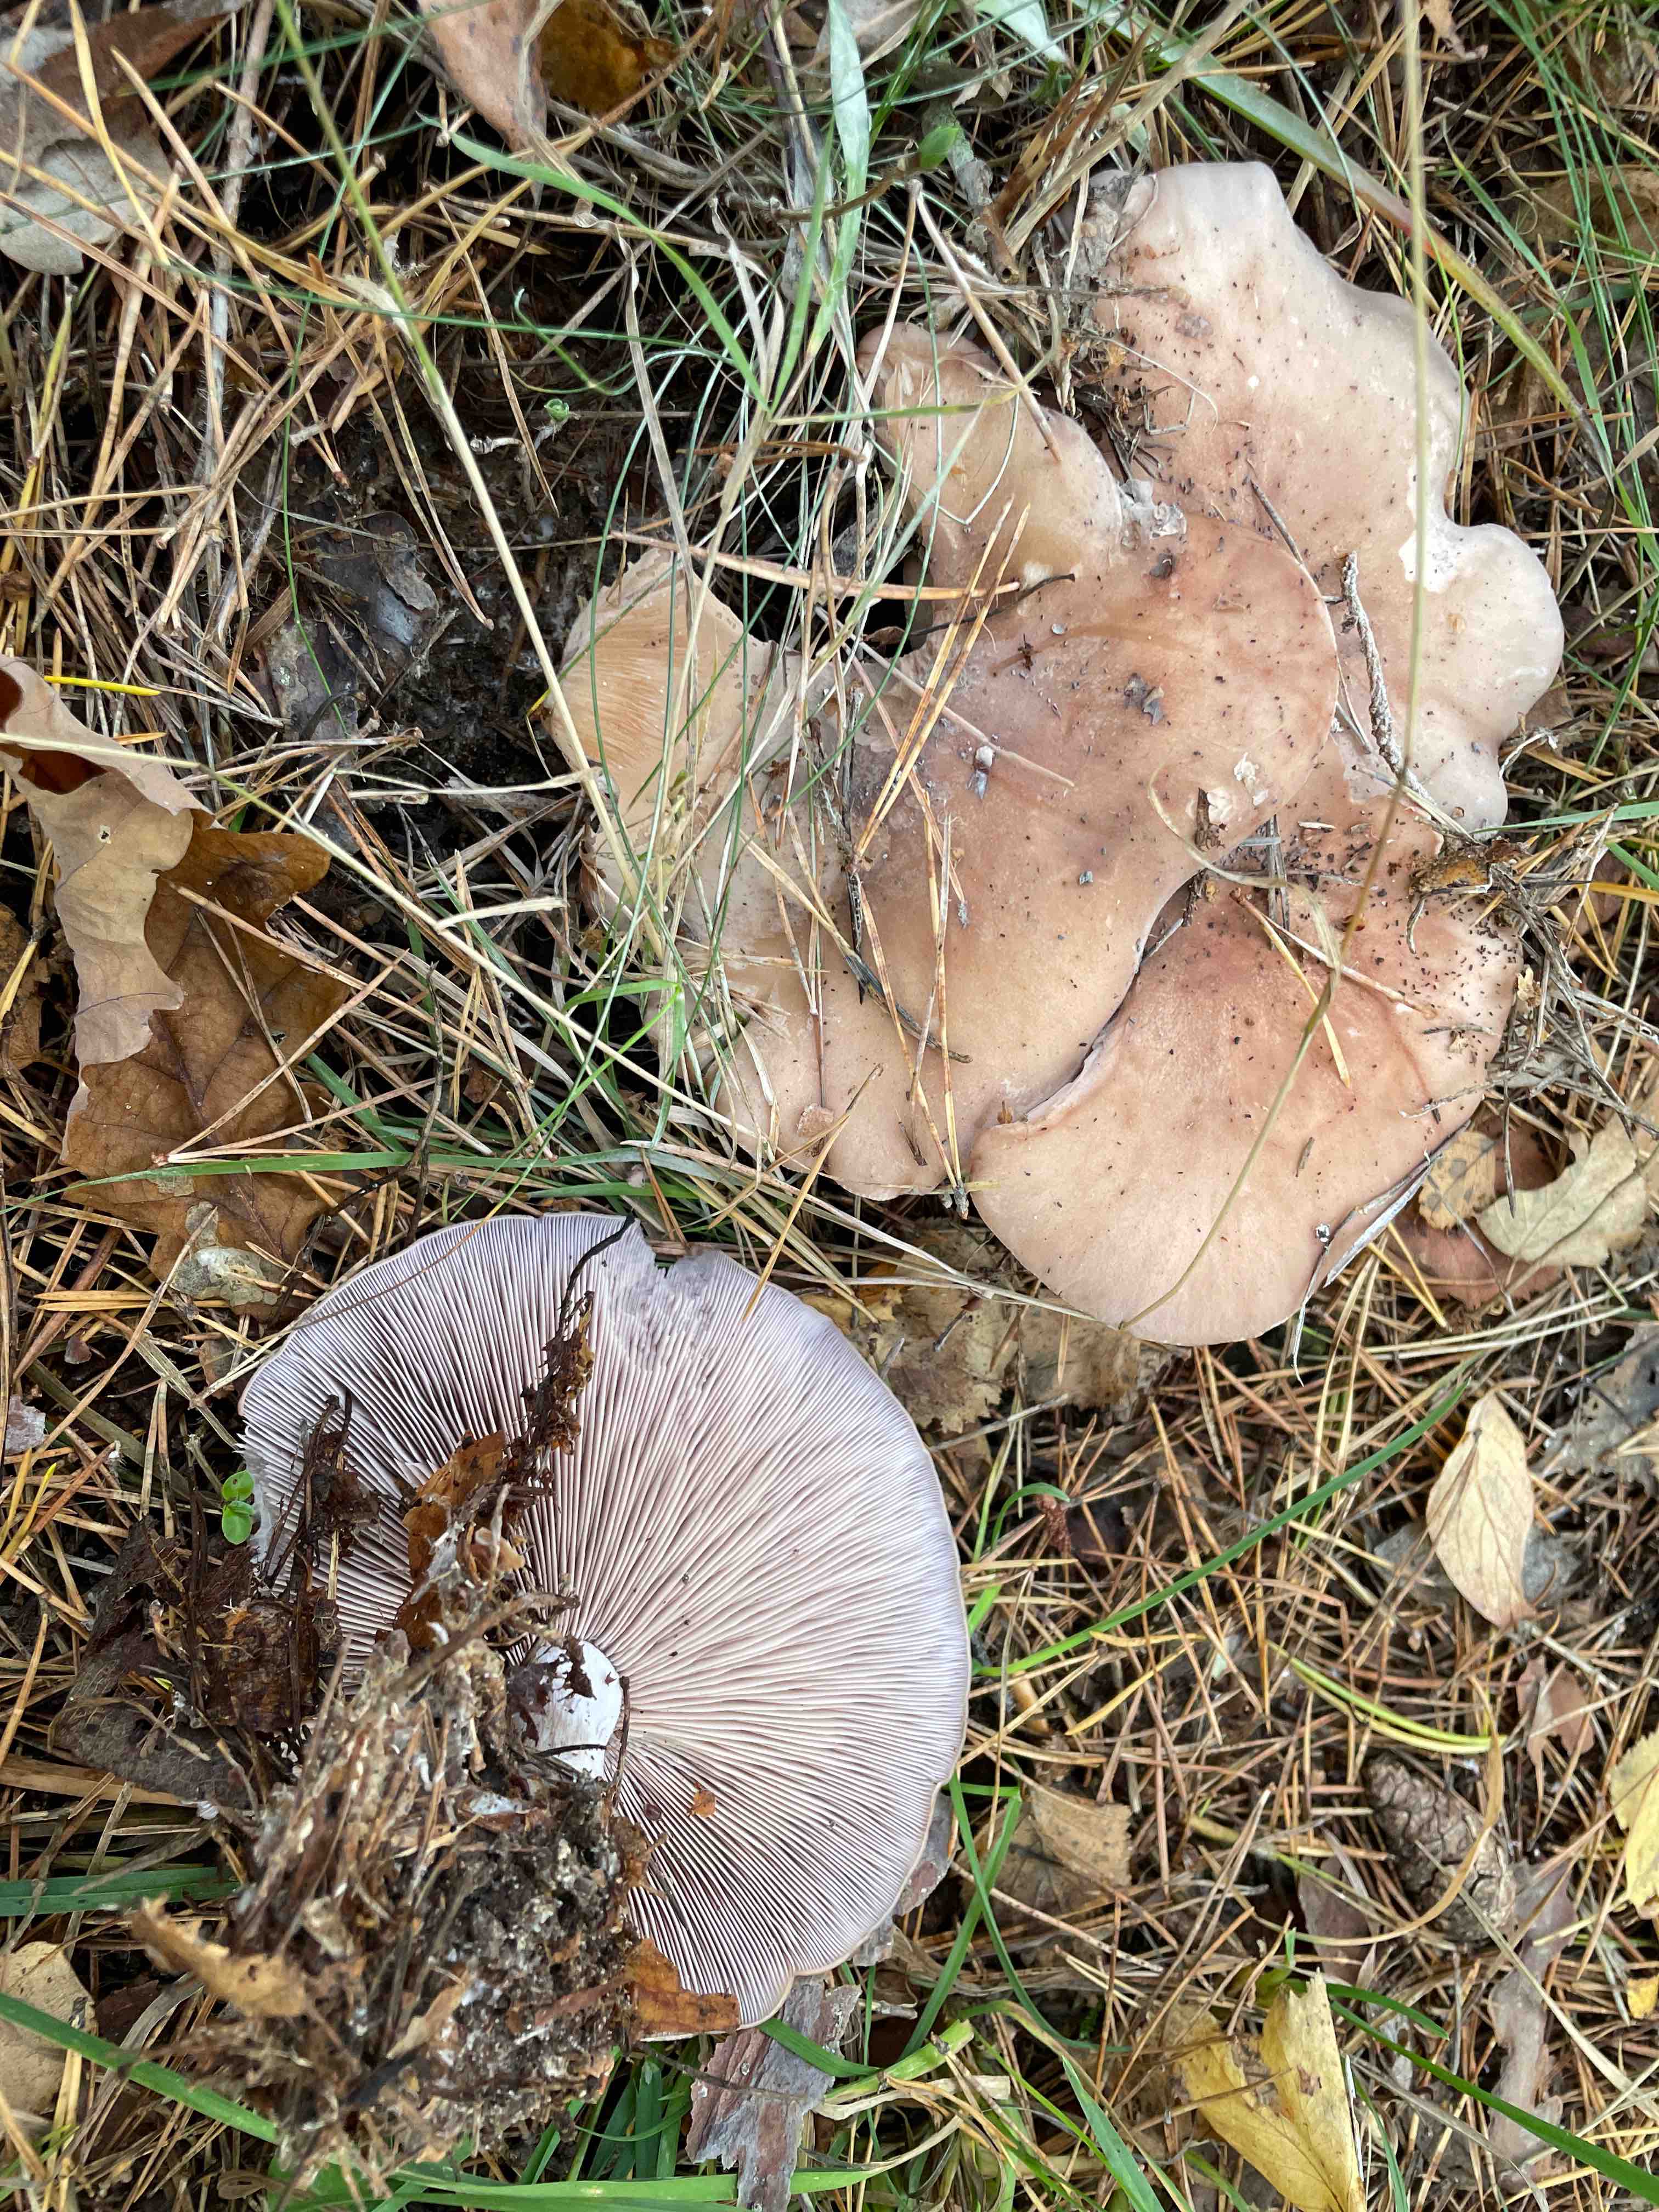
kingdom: Fungi
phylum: Basidiomycota
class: Agaricomycetes
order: Agaricales
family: Tricholomataceae
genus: Lepista
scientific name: Lepista nuda
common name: violet hekseringshat
